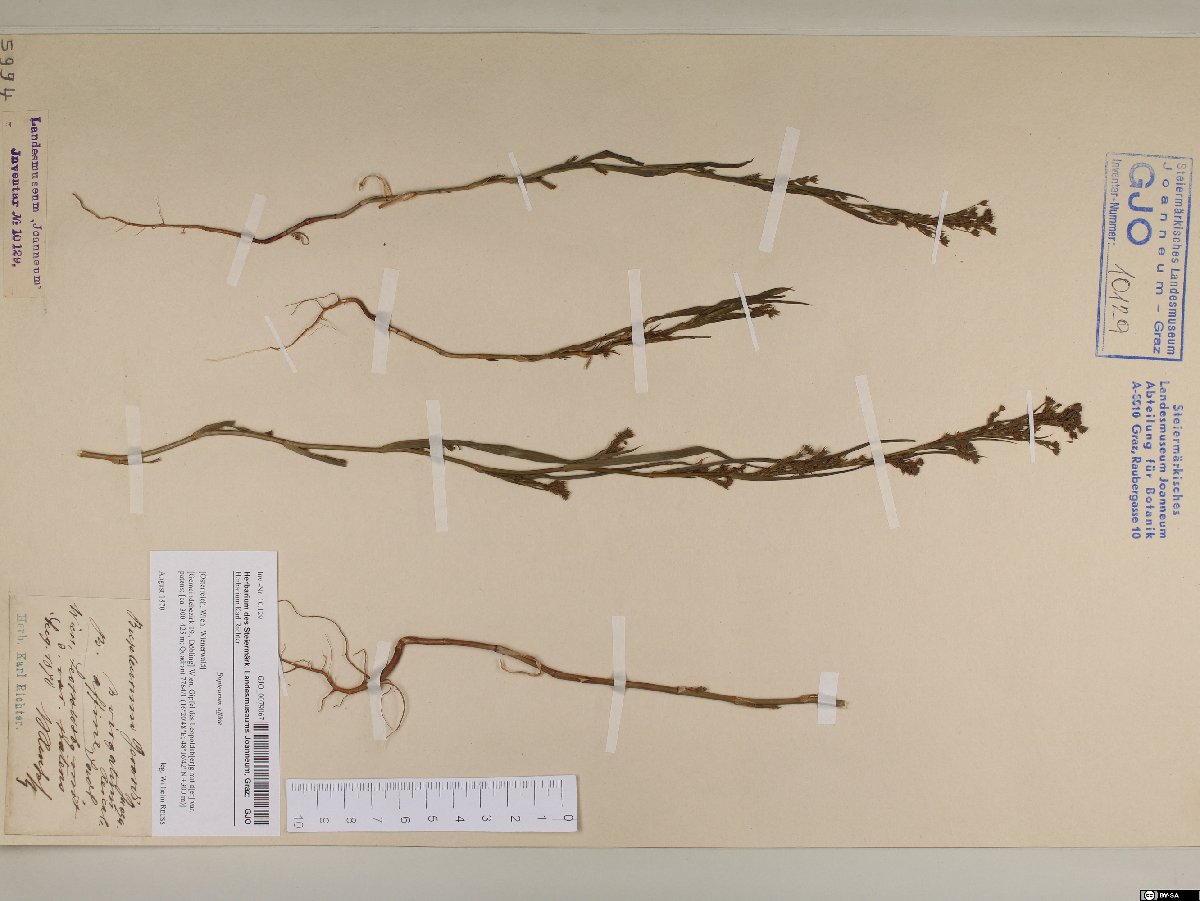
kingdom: Plantae
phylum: Tracheophyta
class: Magnoliopsida
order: Apiales
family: Apiaceae
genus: Bupleurum
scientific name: Bupleurum affine
